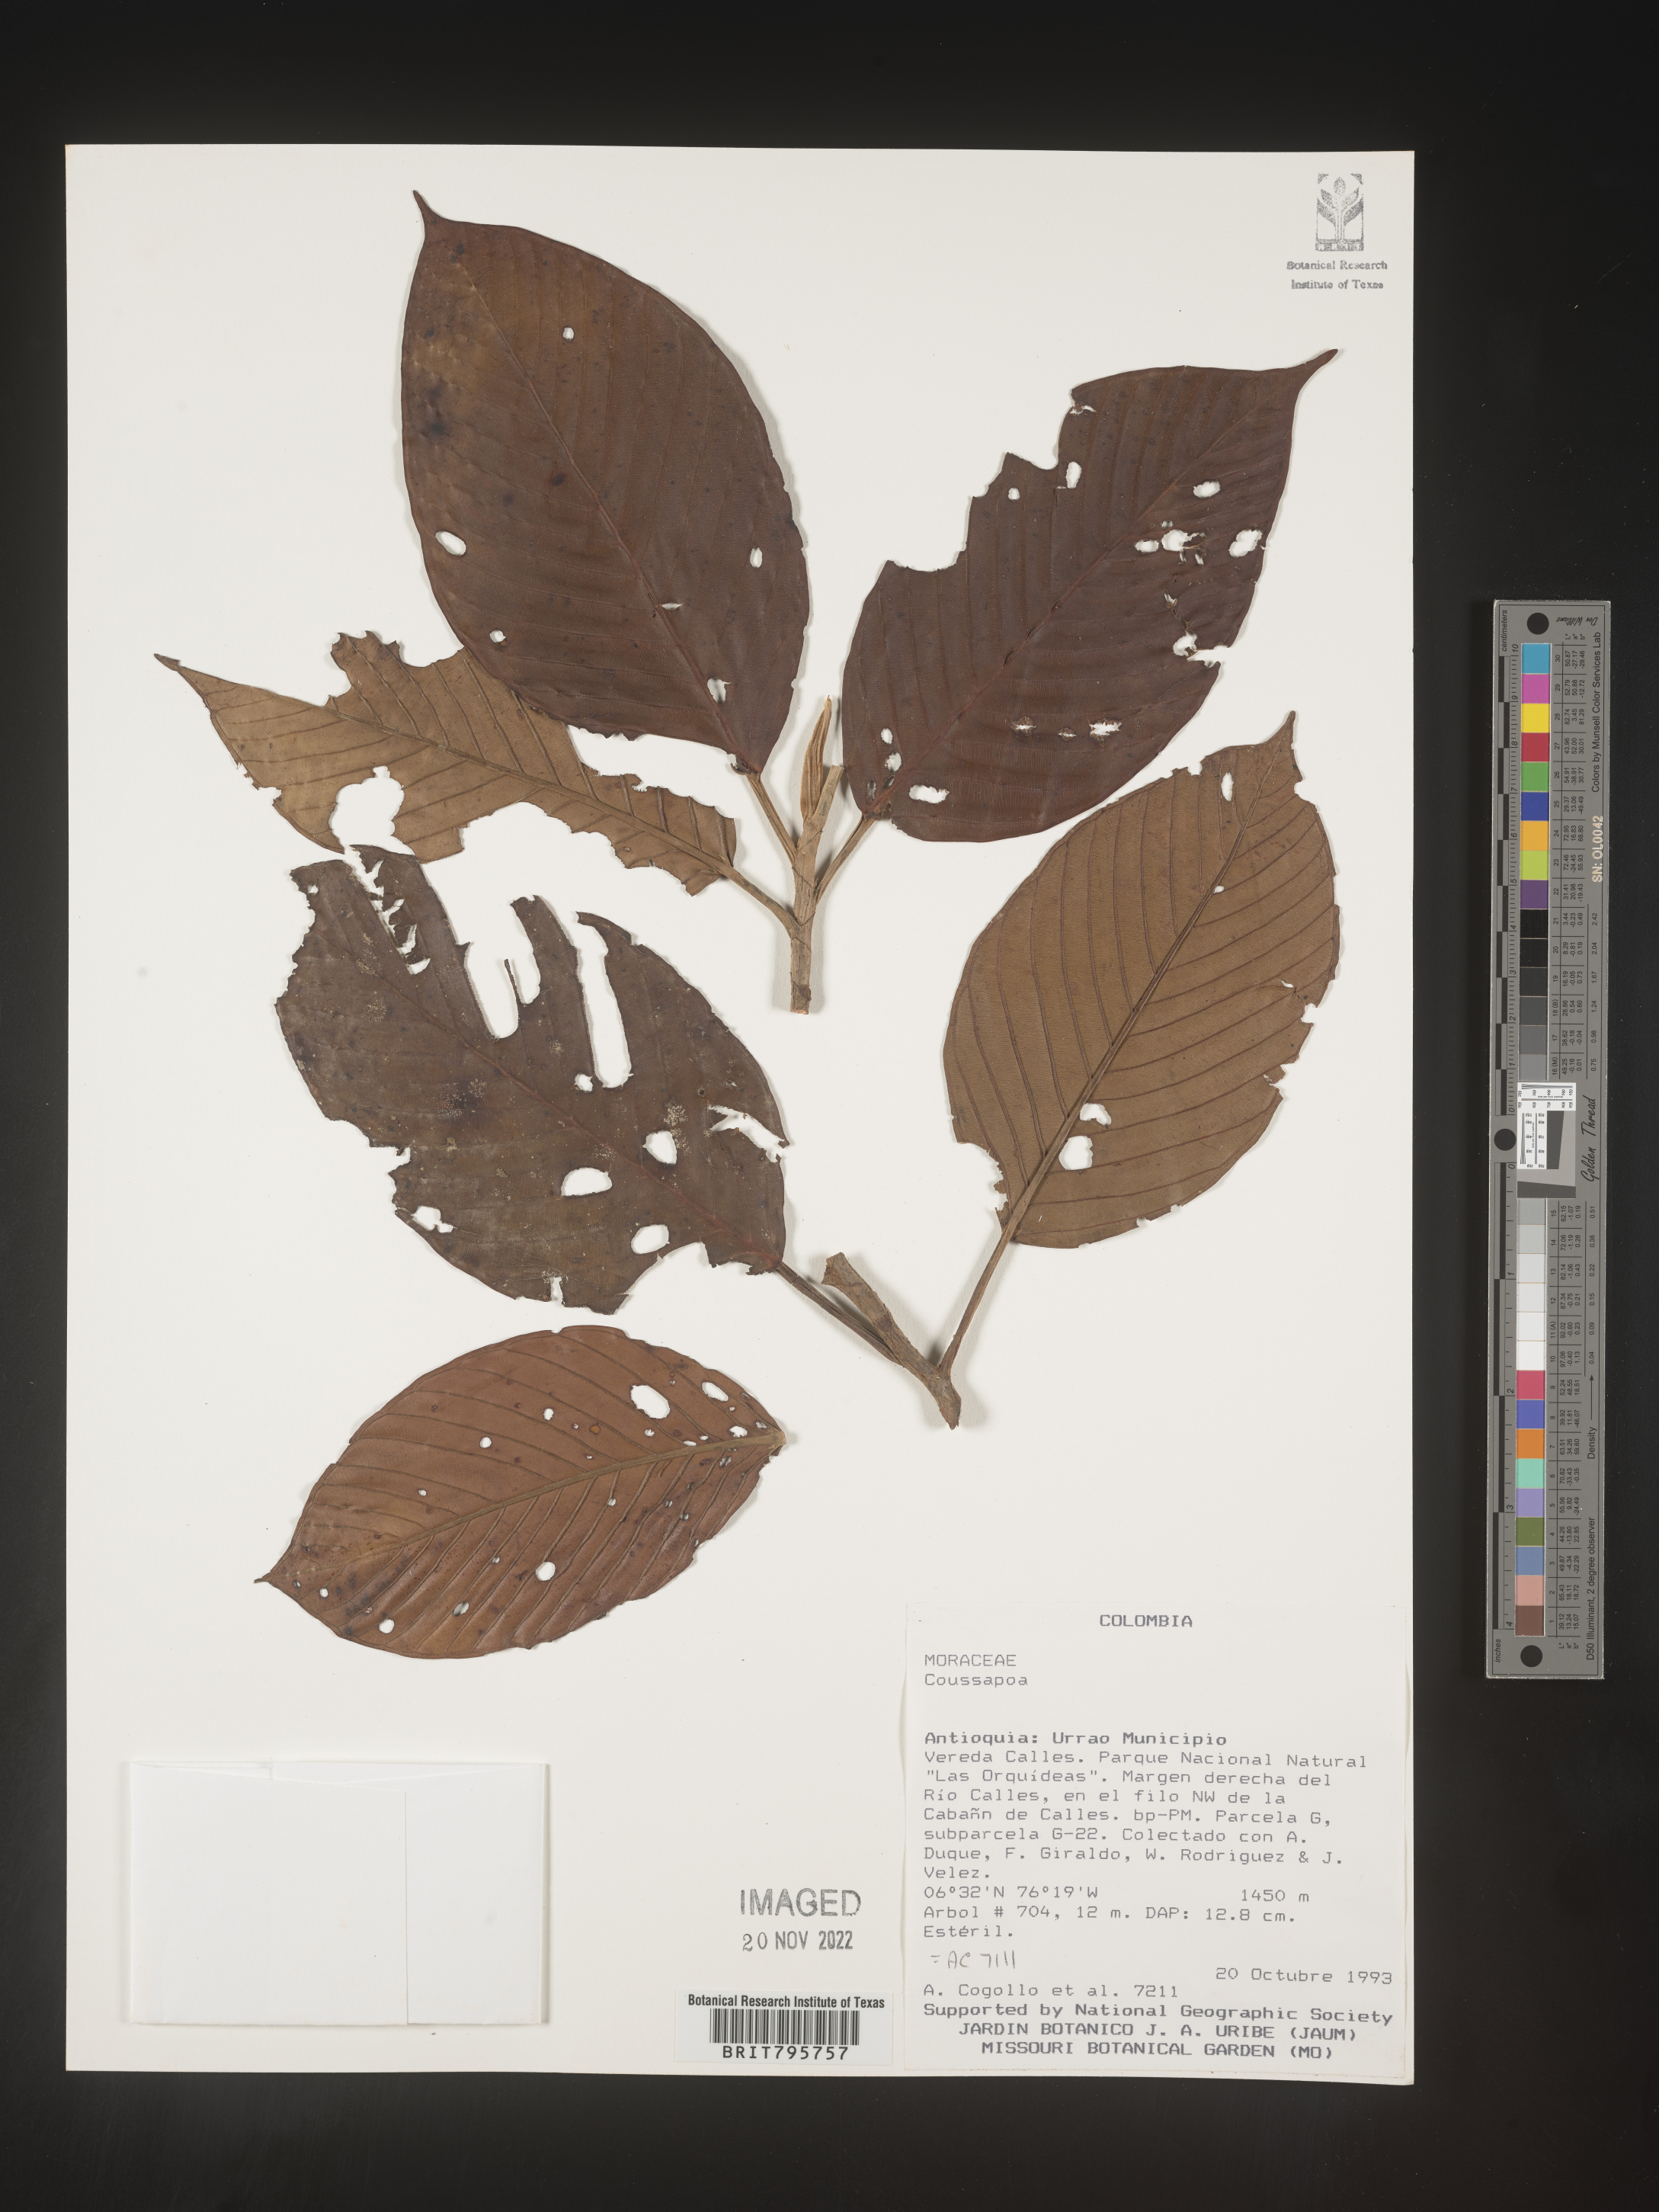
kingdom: Plantae
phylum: Tracheophyta
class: Magnoliopsida
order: Rosales
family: Urticaceae
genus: Coussapoa
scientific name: Coussapoa
